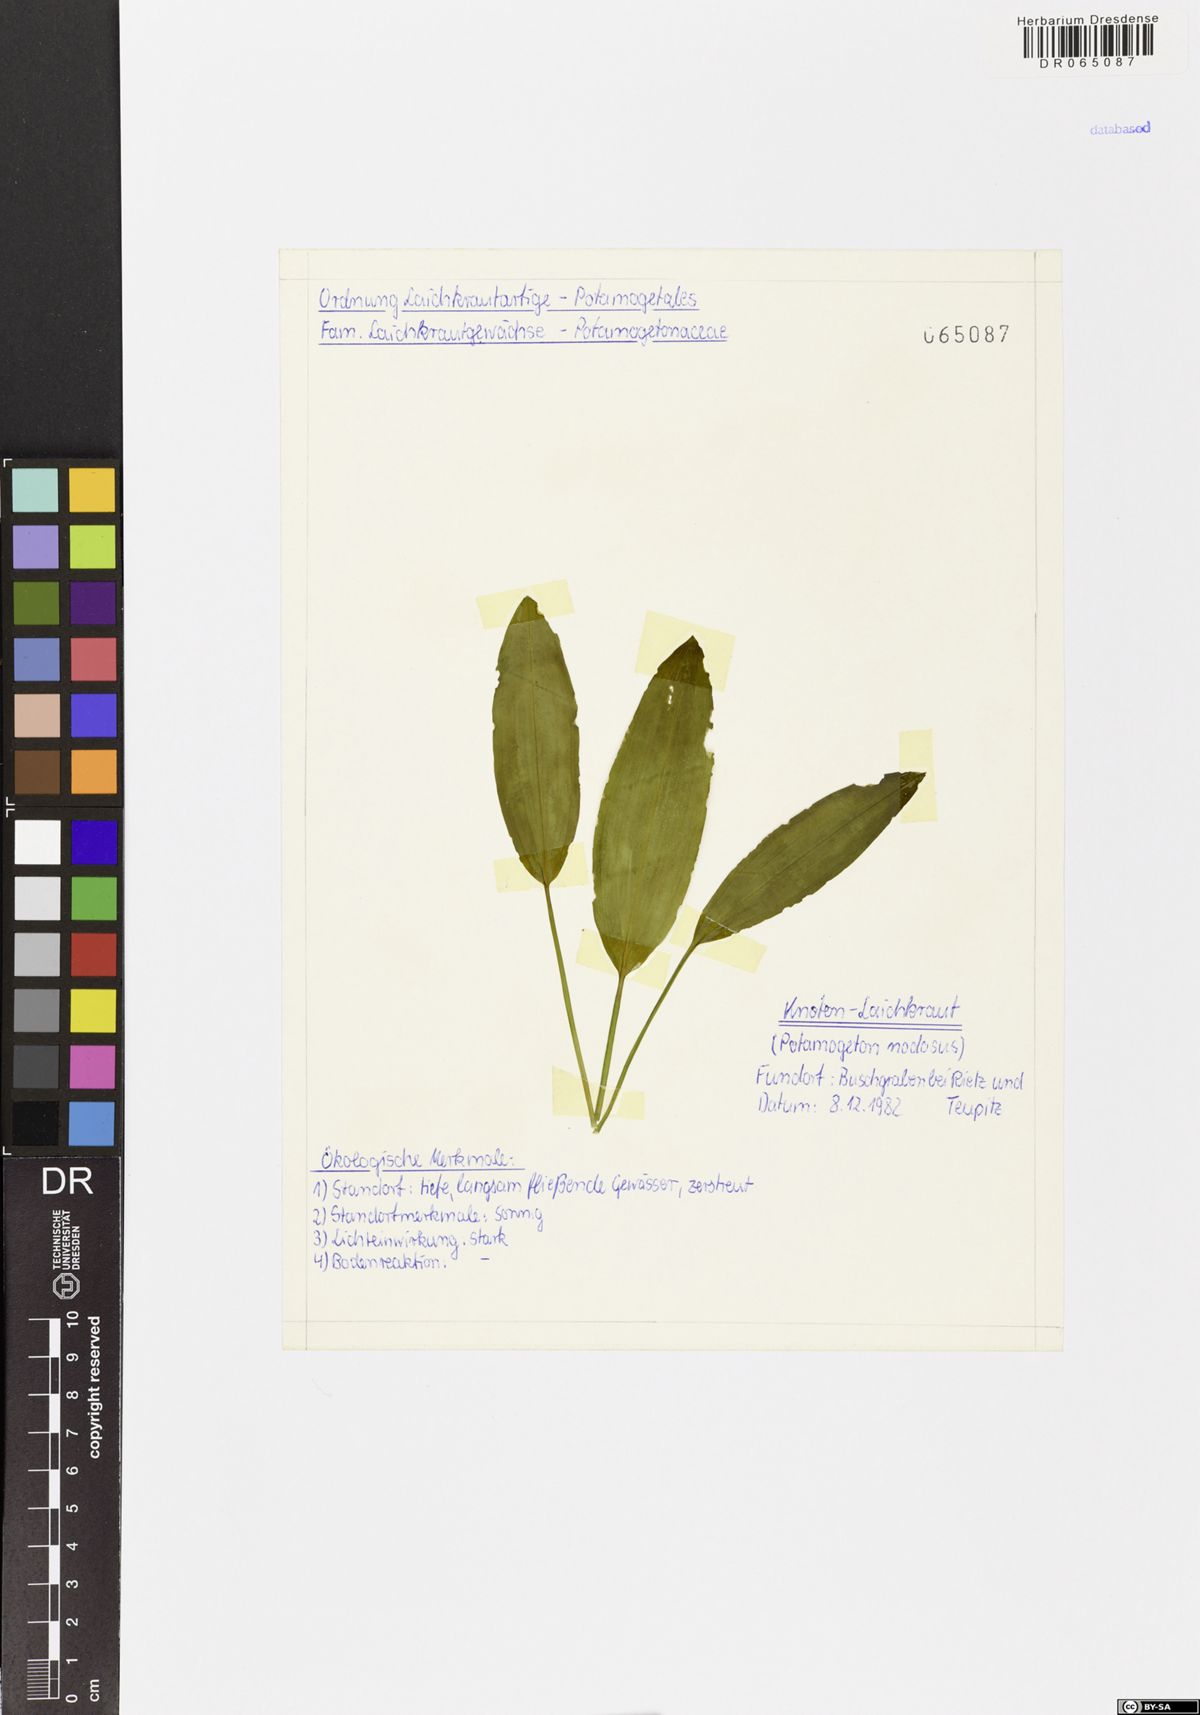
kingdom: Plantae
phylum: Tracheophyta
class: Liliopsida
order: Alismatales
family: Potamogetonaceae
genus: Potamogeton
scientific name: Potamogeton nodosus
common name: Loddon pondweed
